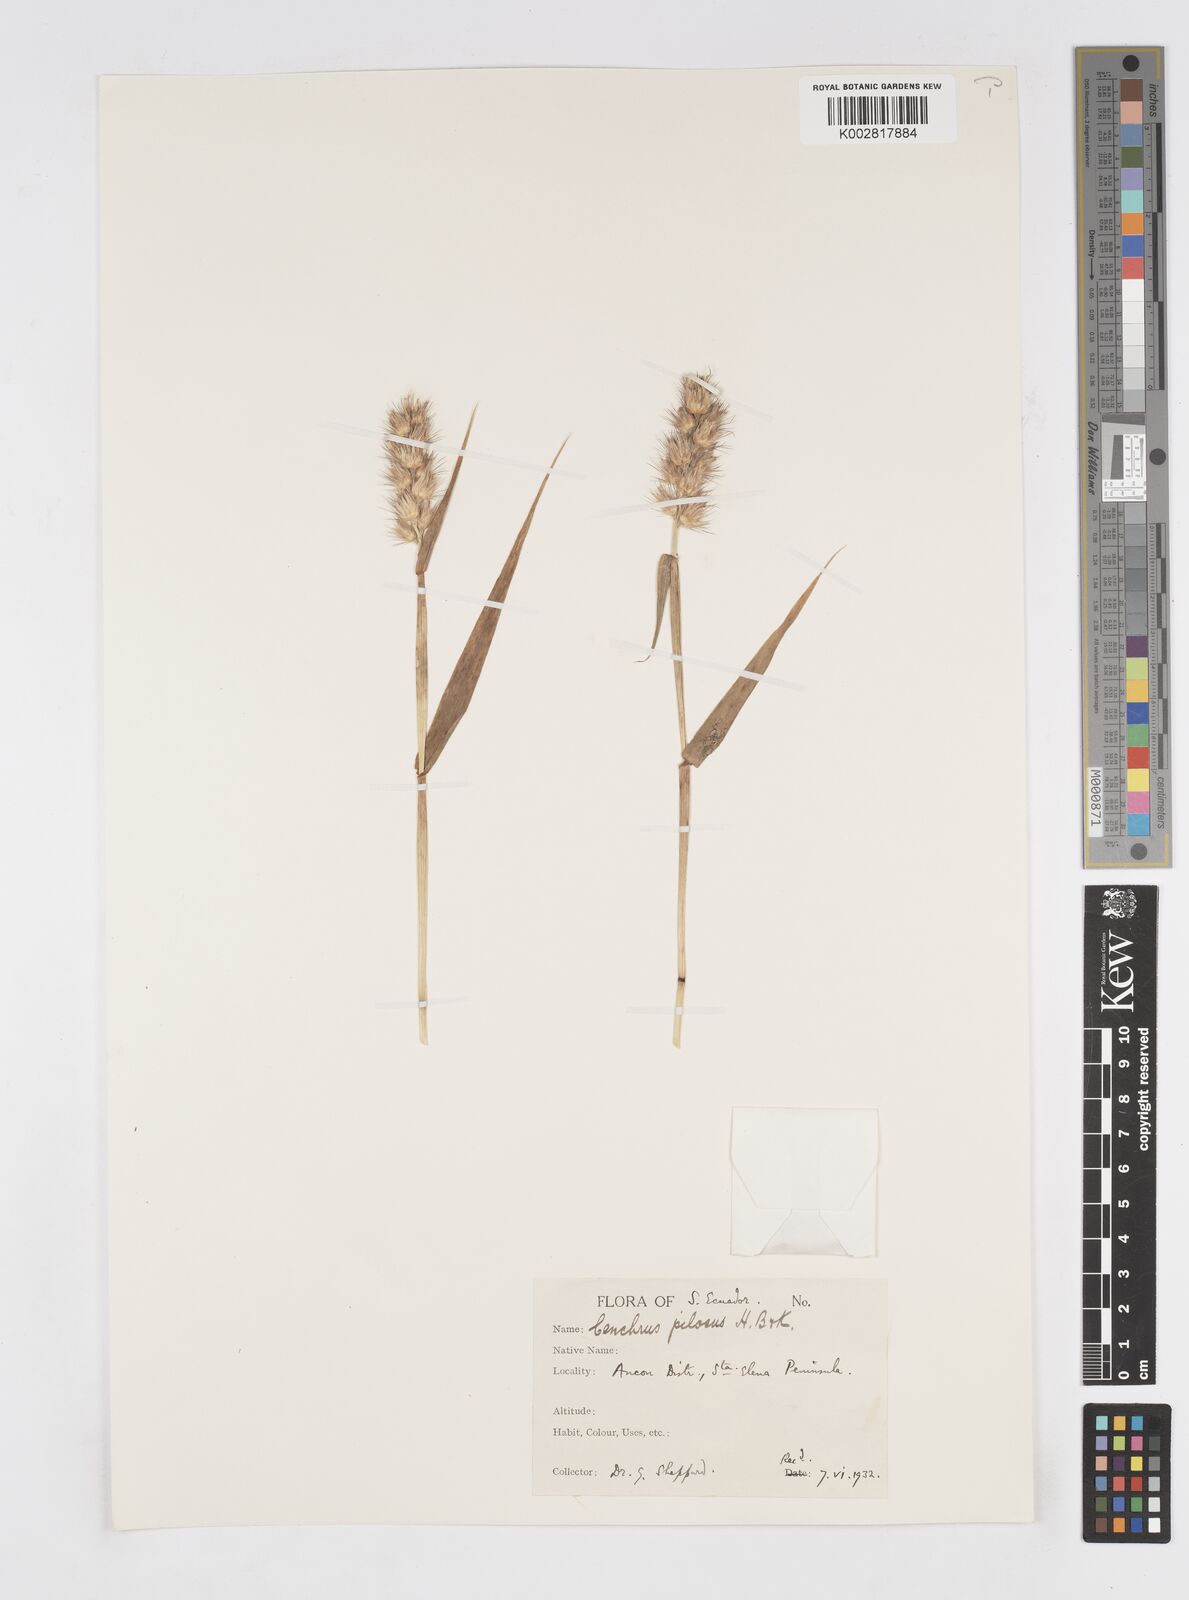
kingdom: Plantae
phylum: Tracheophyta
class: Liliopsida
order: Poales
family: Poaceae
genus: Cenchrus
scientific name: Cenchrus pilosus
